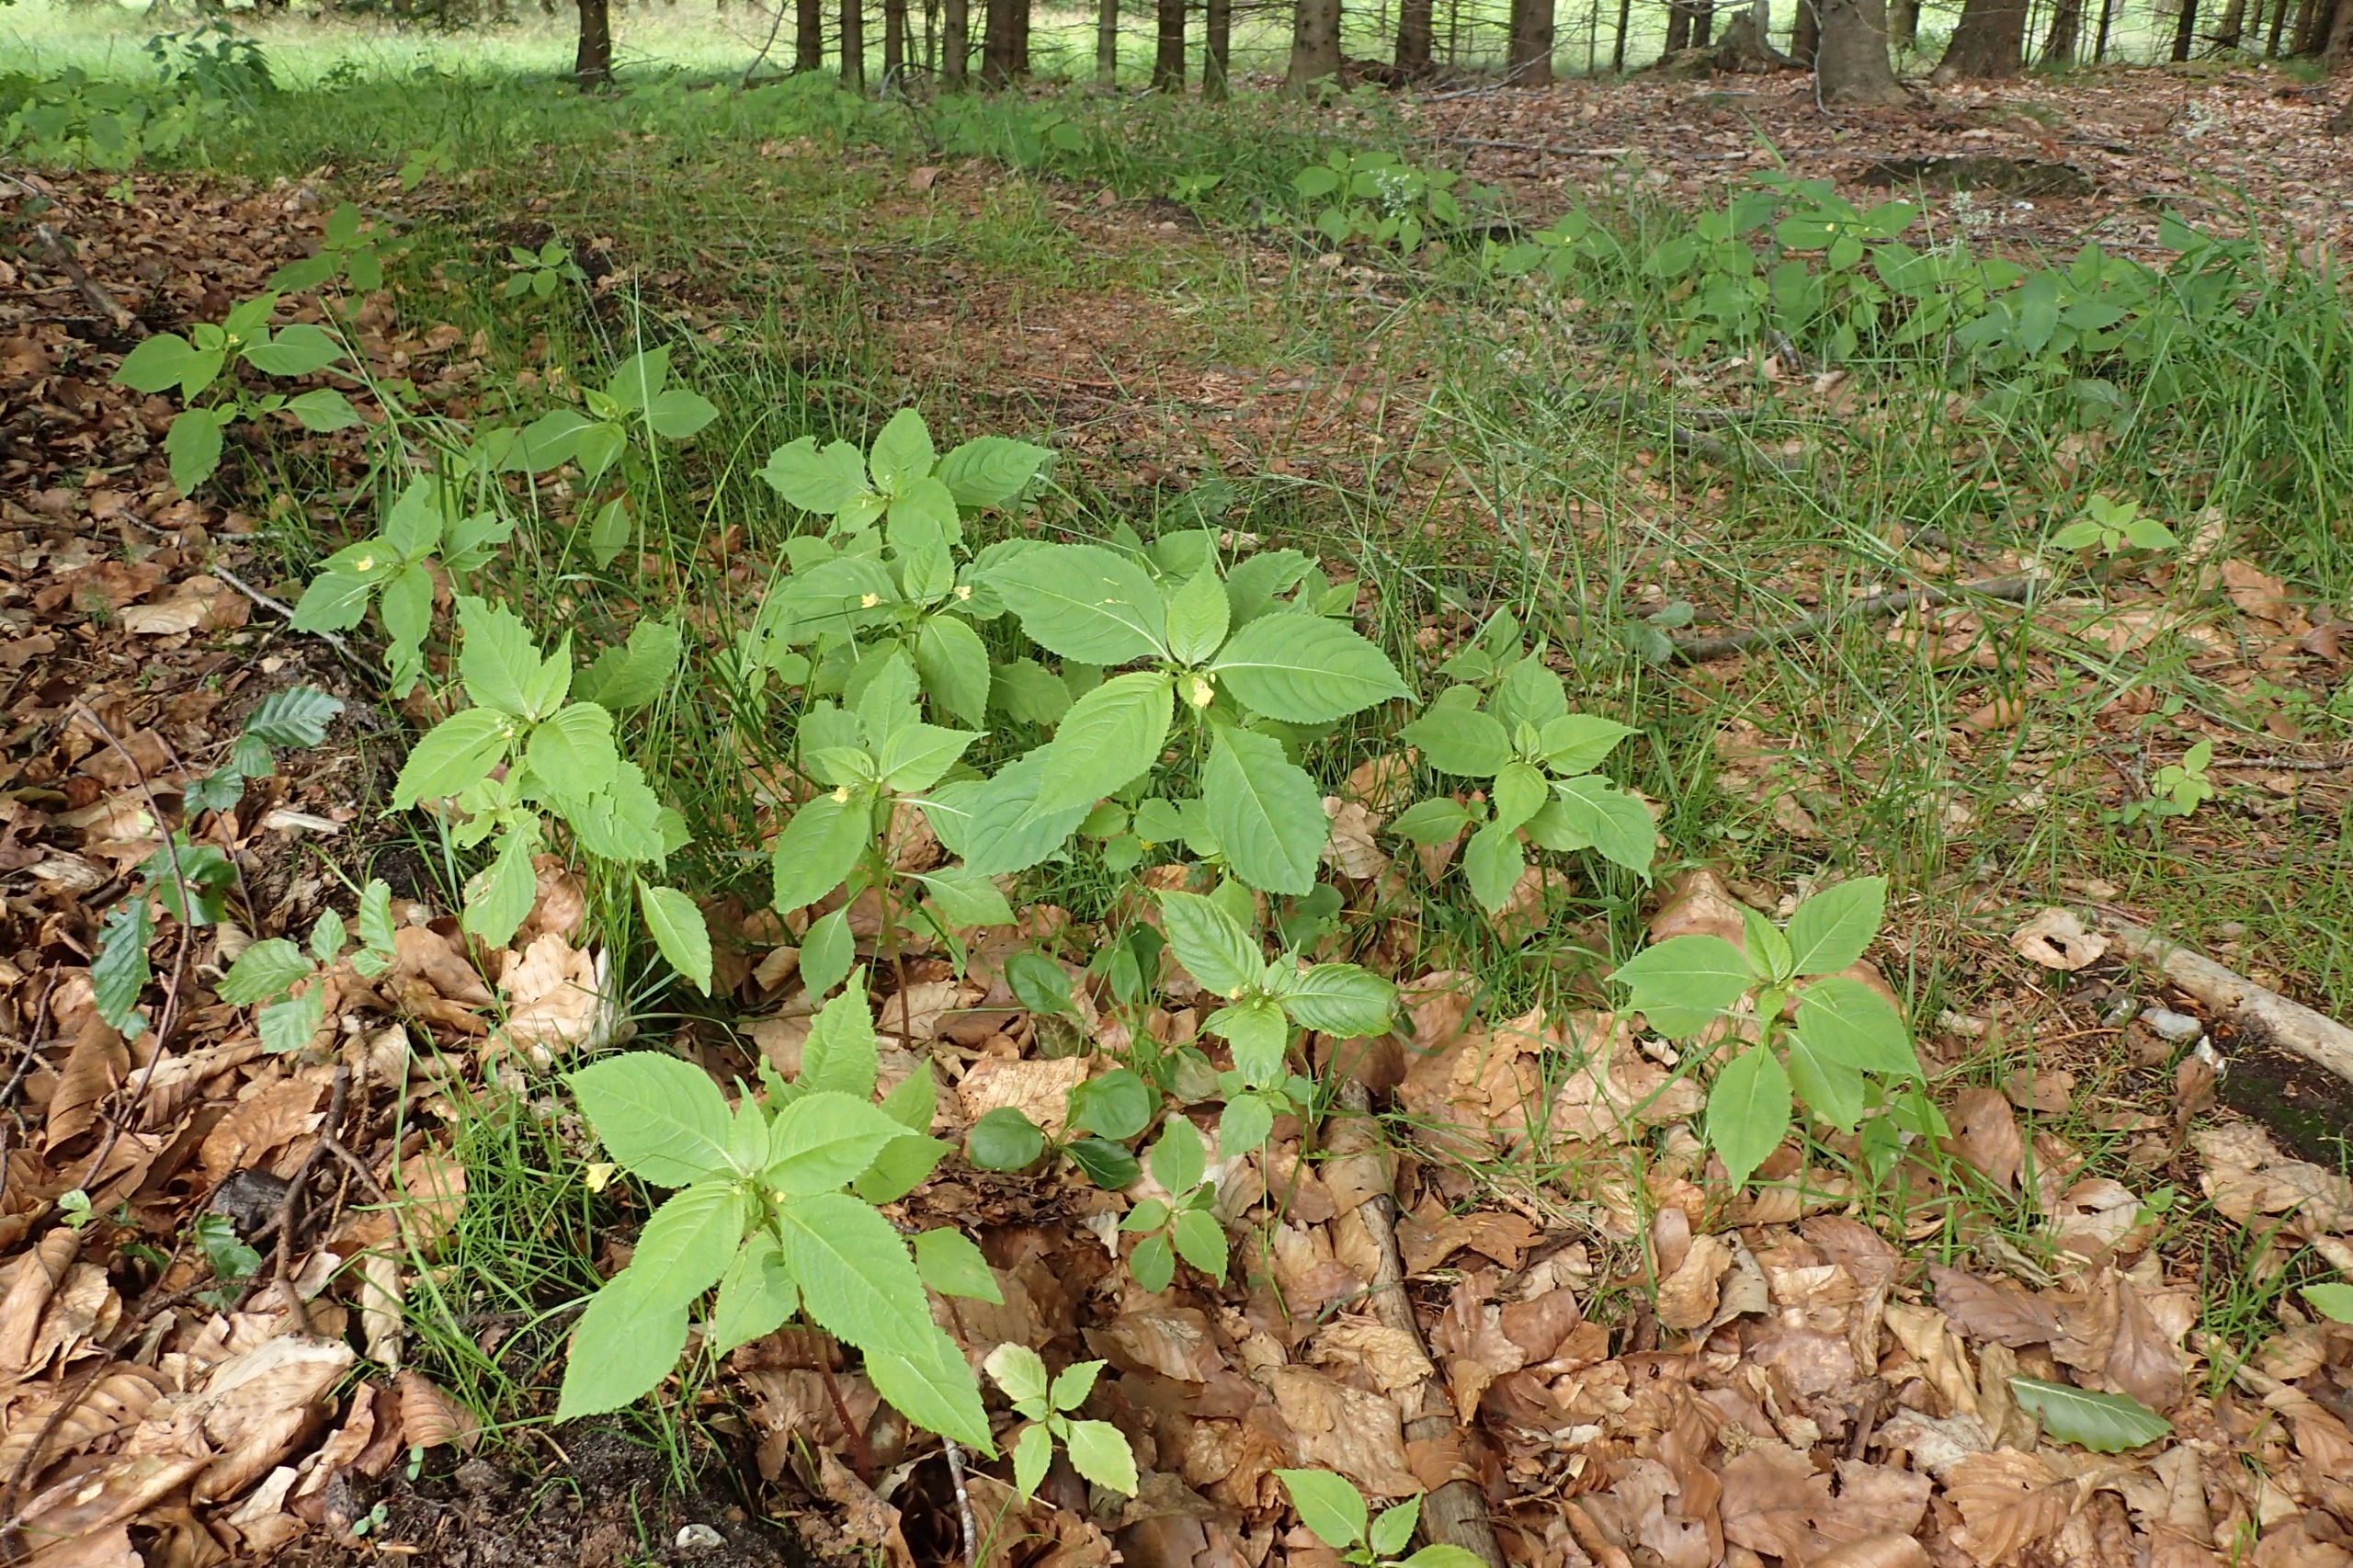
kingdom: Plantae
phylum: Tracheophyta
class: Magnoliopsida
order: Ericales
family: Balsaminaceae
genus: Impatiens
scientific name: Impatiens parviflora
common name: Småblomstret balsamin
